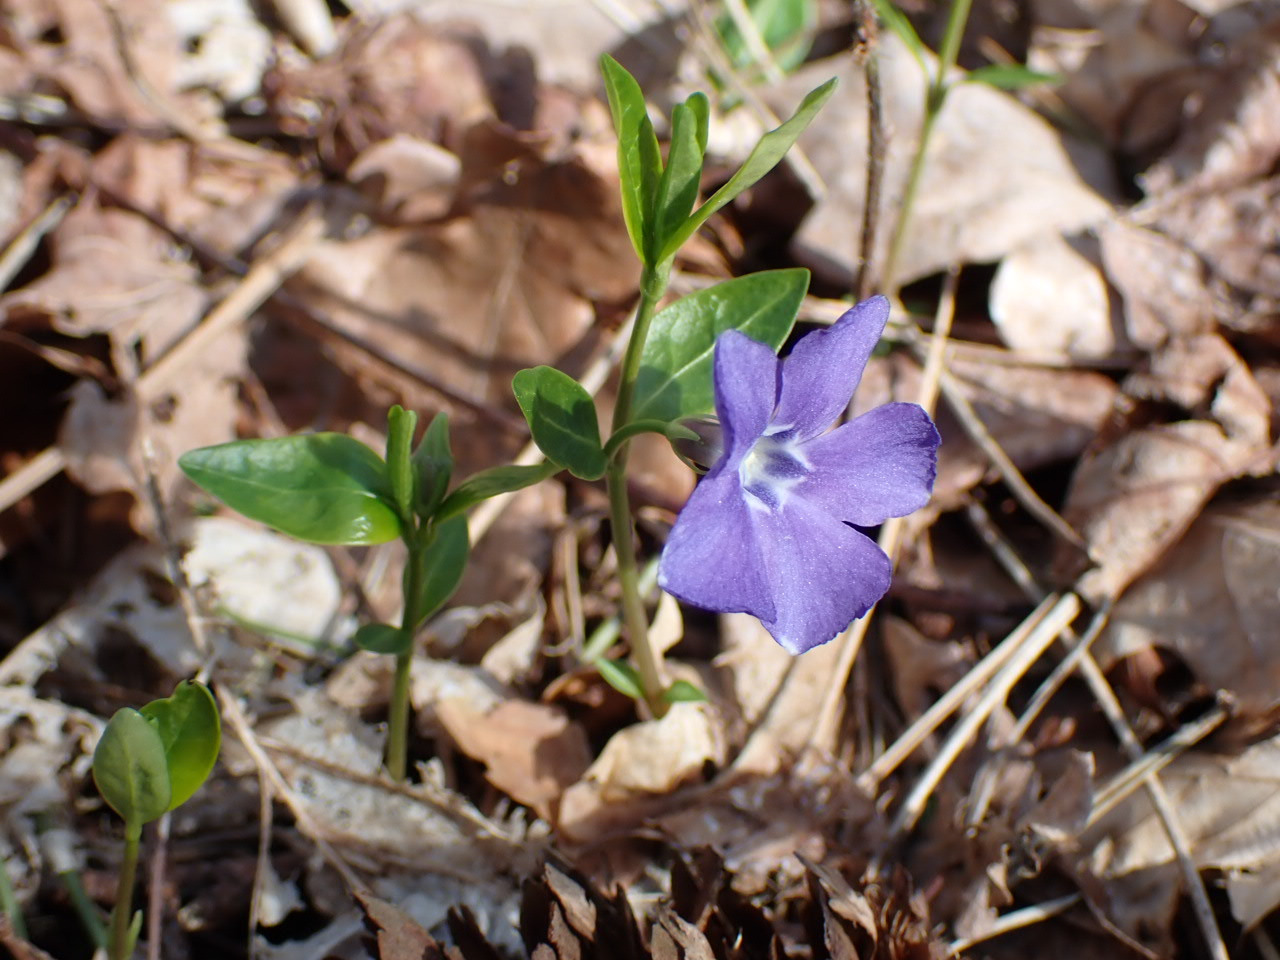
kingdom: Plantae
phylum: Tracheophyta
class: Magnoliopsida
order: Gentianales
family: Apocynaceae
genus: Vinca
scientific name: Vinca minor
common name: Liden singrøn
